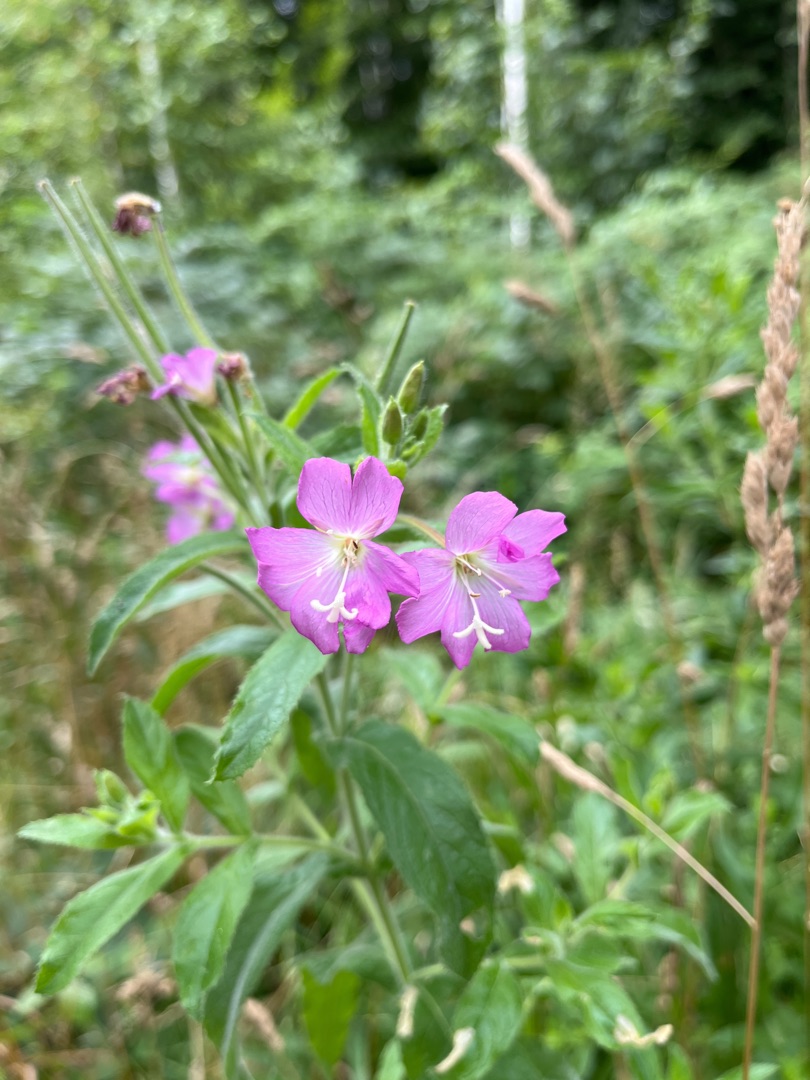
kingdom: Plantae
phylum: Tracheophyta
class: Magnoliopsida
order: Myrtales
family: Onagraceae
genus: Epilobium
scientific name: Epilobium hirsutum
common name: Lådden dueurt
